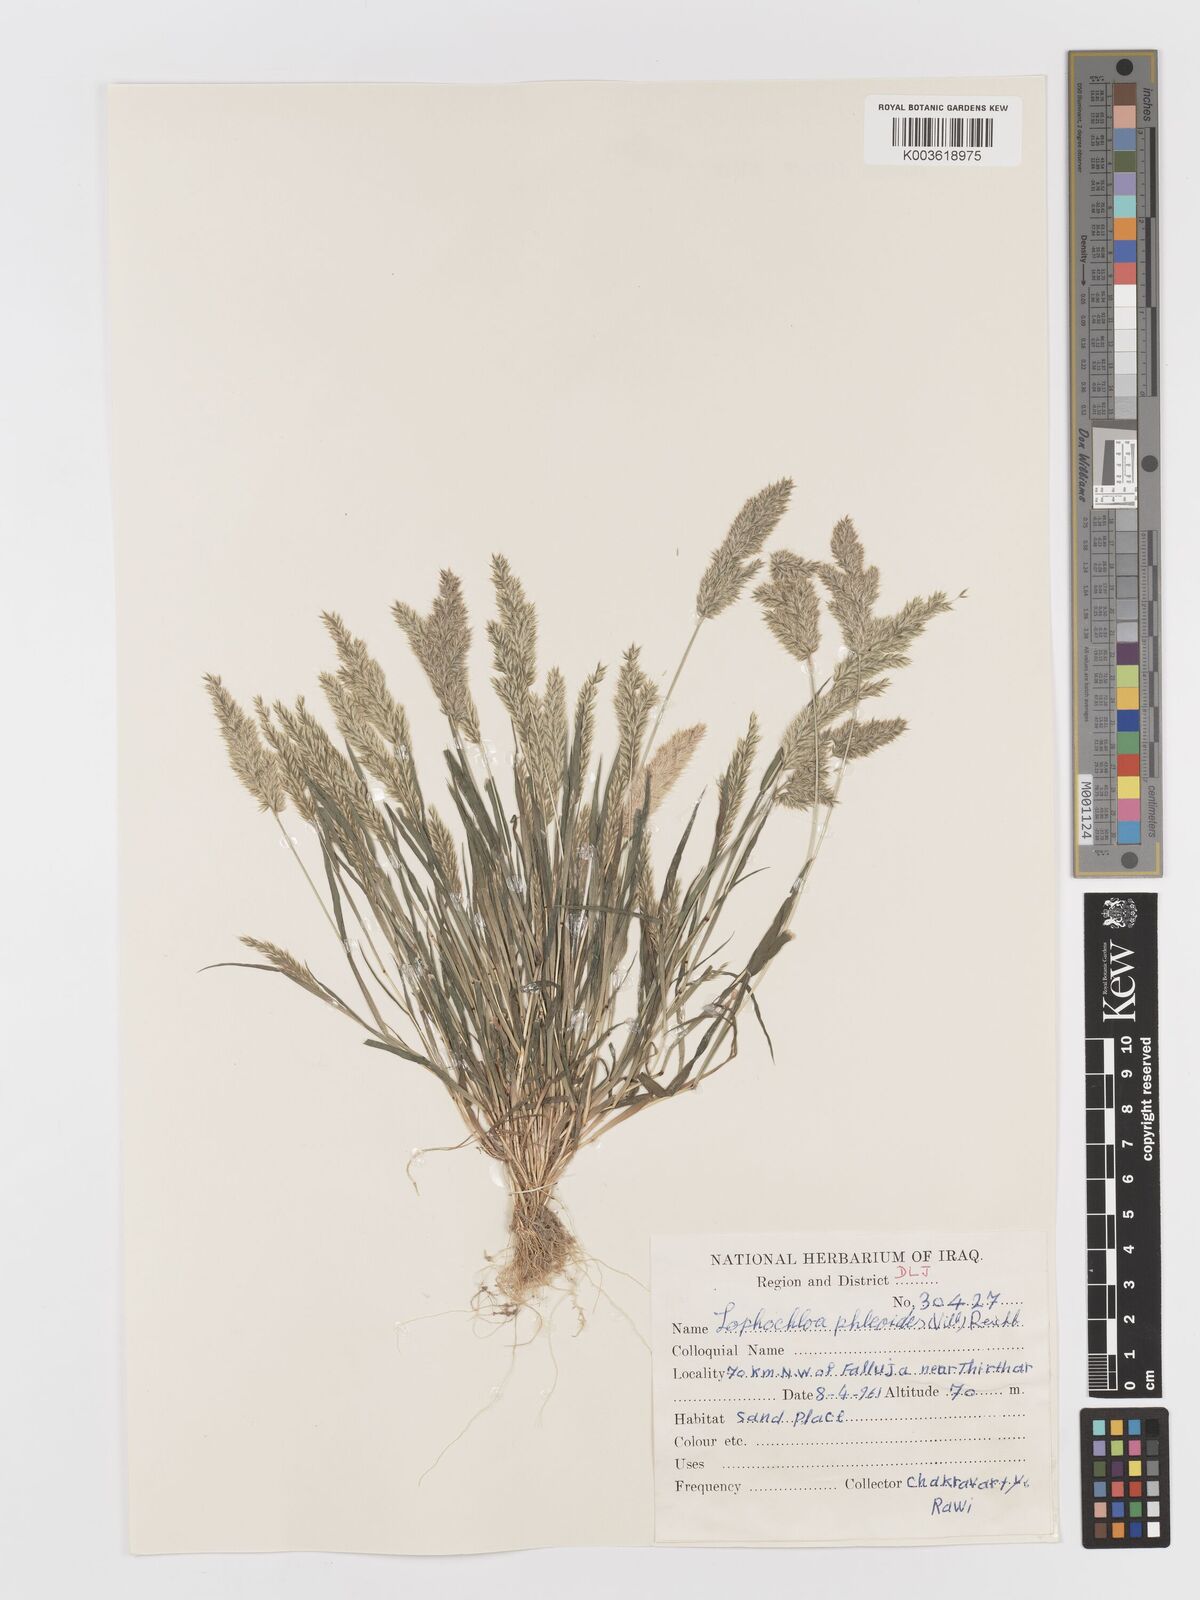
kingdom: Plantae
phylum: Tracheophyta
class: Liliopsida
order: Poales
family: Poaceae
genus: Rostraria
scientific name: Rostraria cristata
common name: Mediterranean hair-grass
